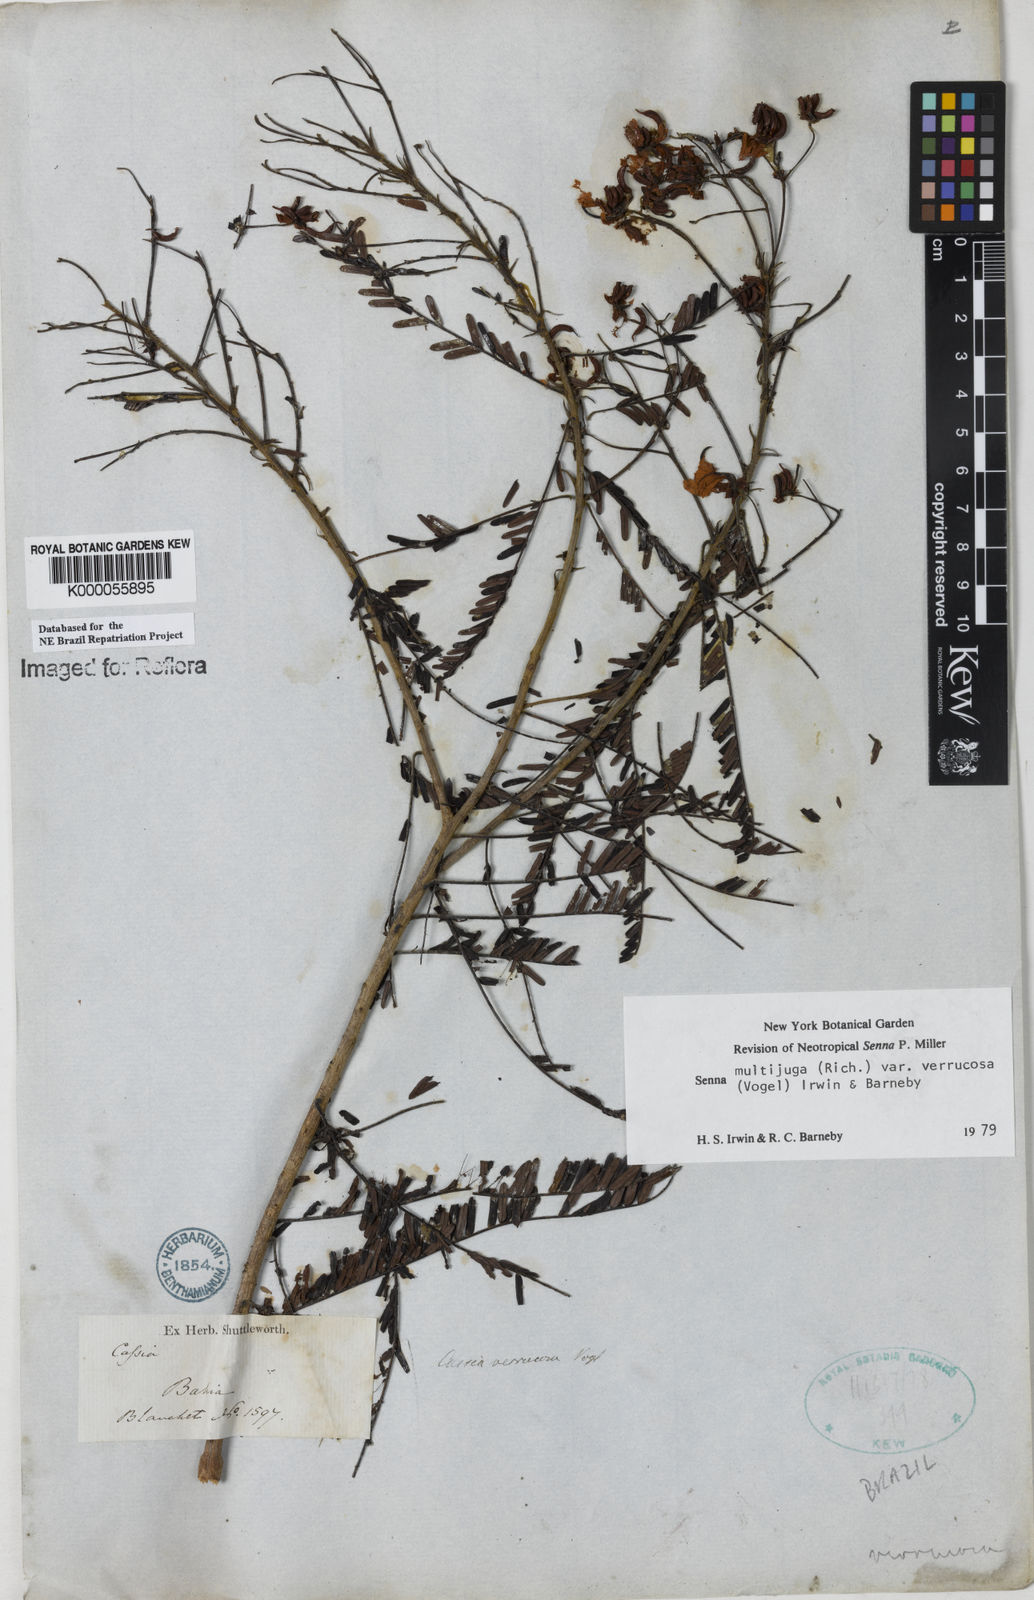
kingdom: Plantae
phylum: Tracheophyta
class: Magnoliopsida
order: Fabales
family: Fabaceae
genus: Senna
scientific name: Senna multijuga
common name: False sicklepod
